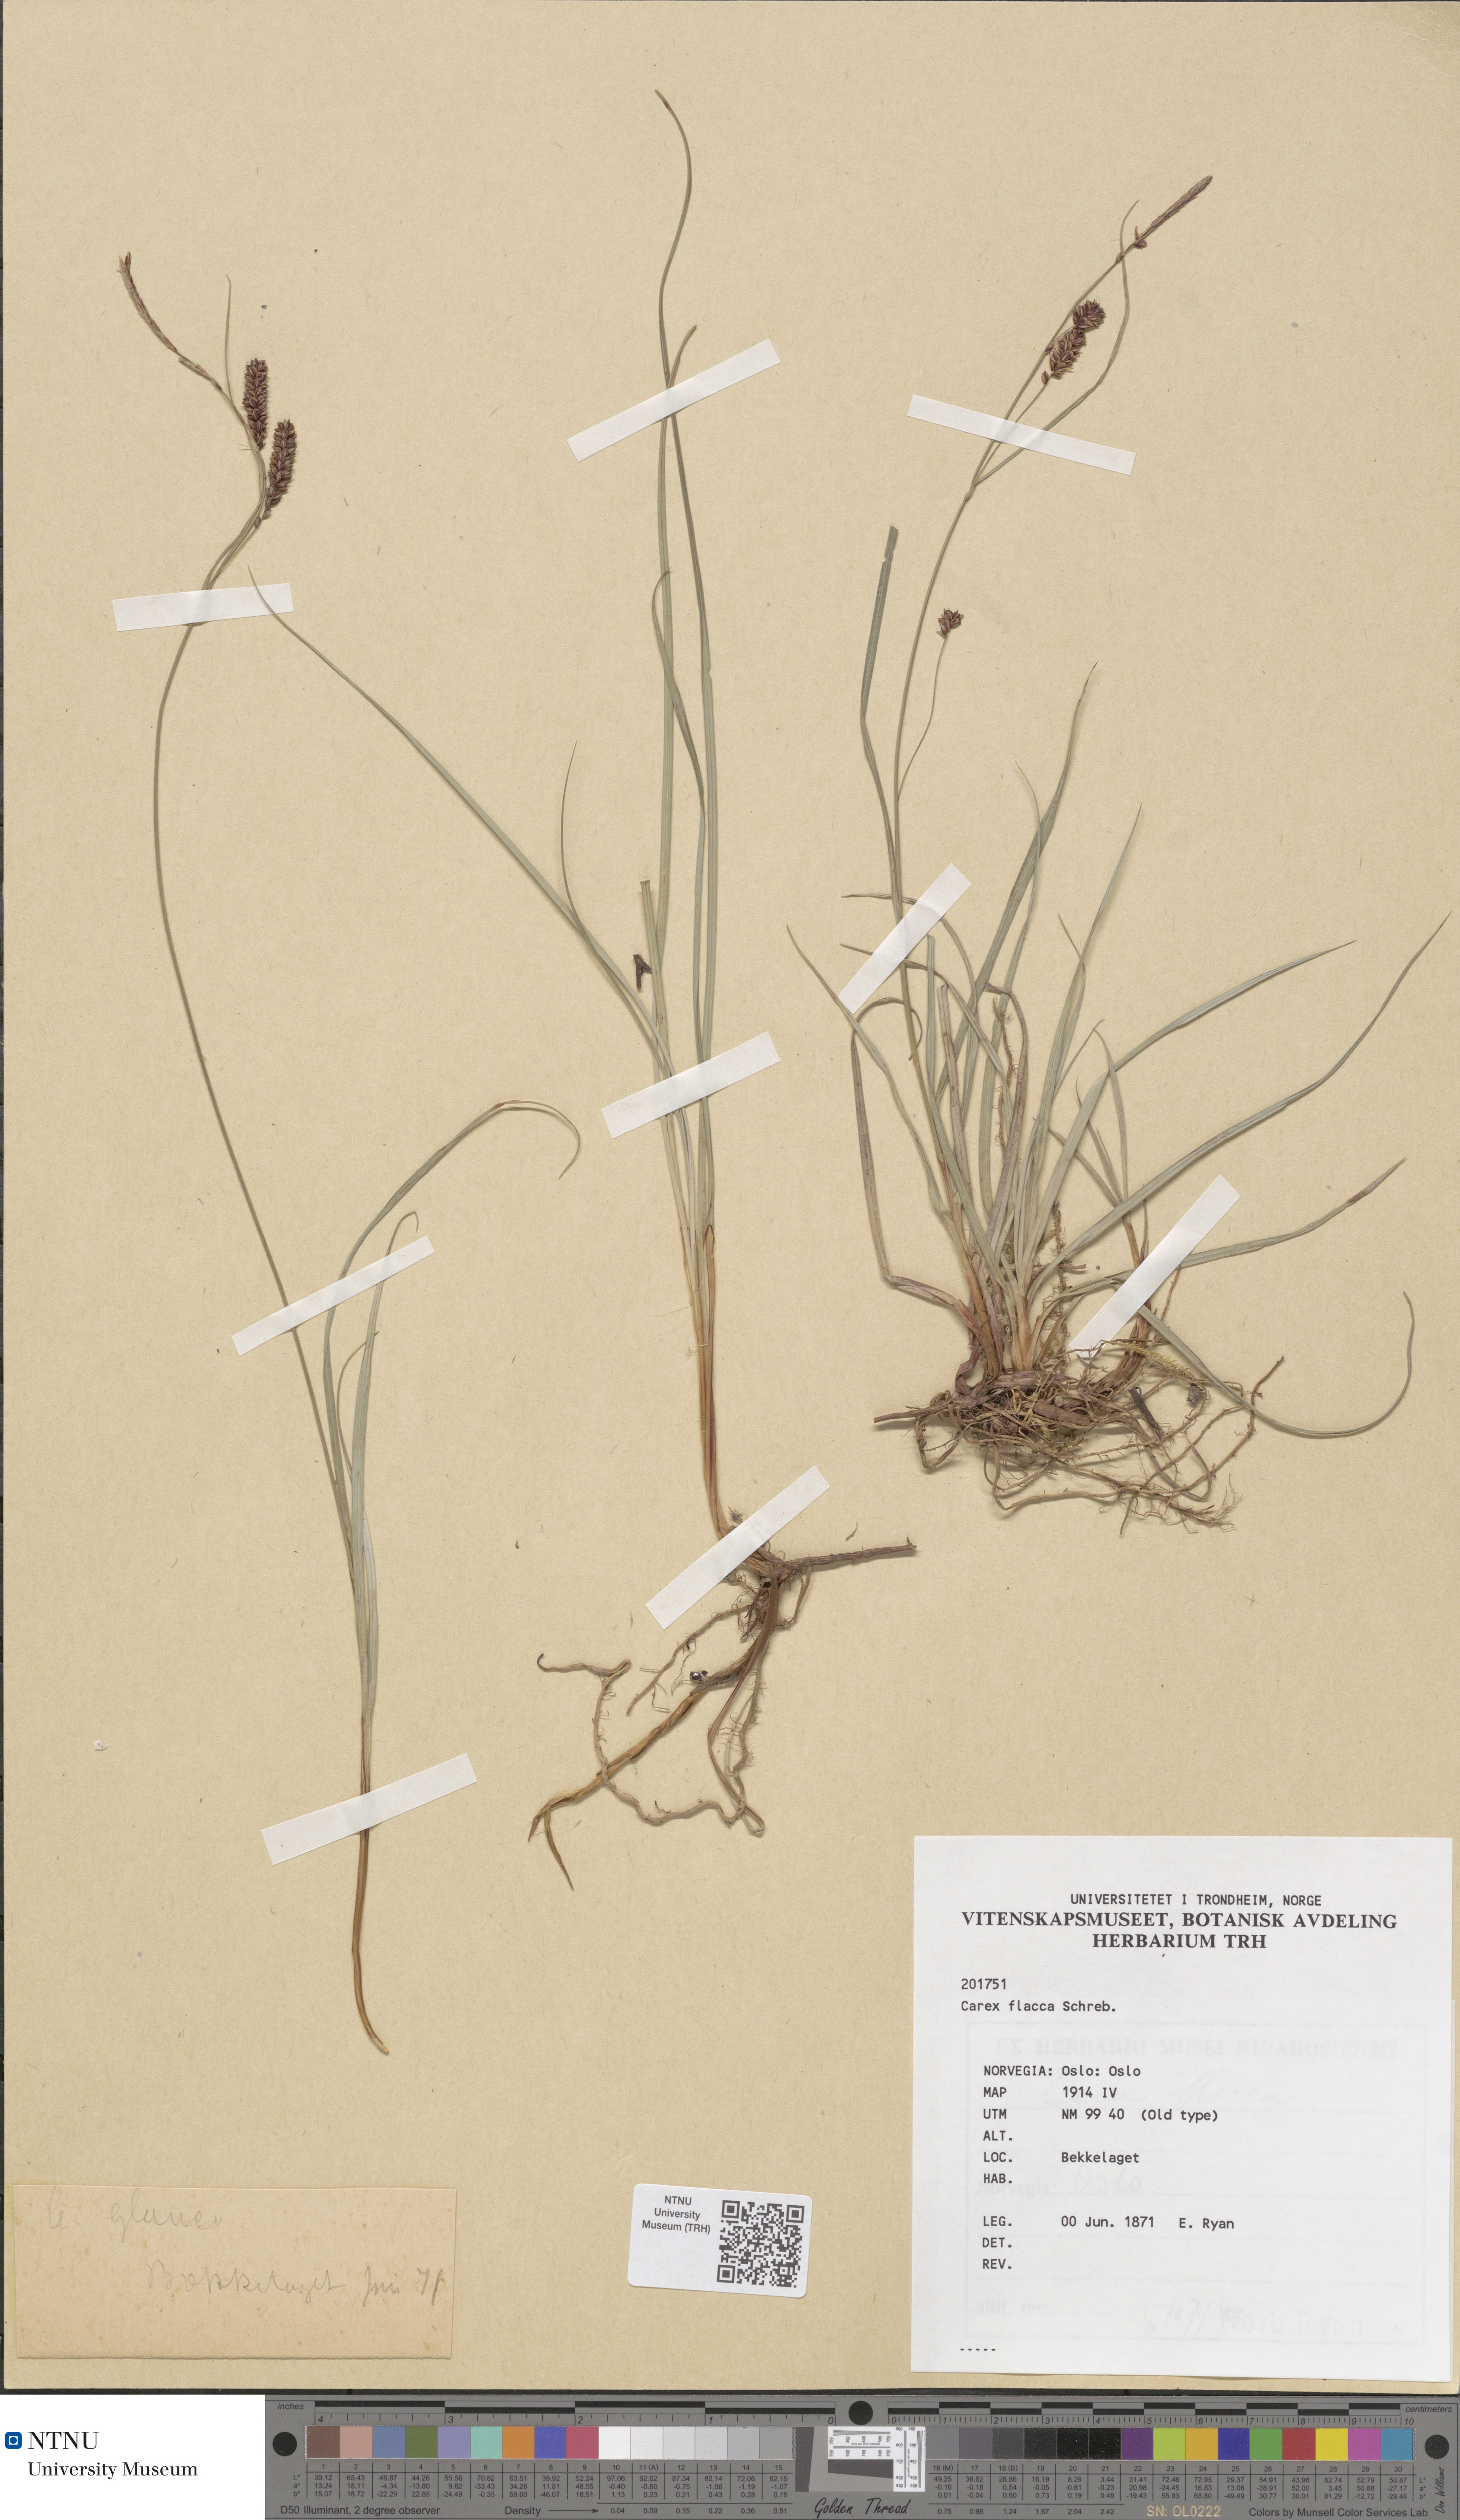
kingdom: Plantae
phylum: Tracheophyta
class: Liliopsida
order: Poales
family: Cyperaceae
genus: Carex
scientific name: Carex flacca
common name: Glaucous sedge
